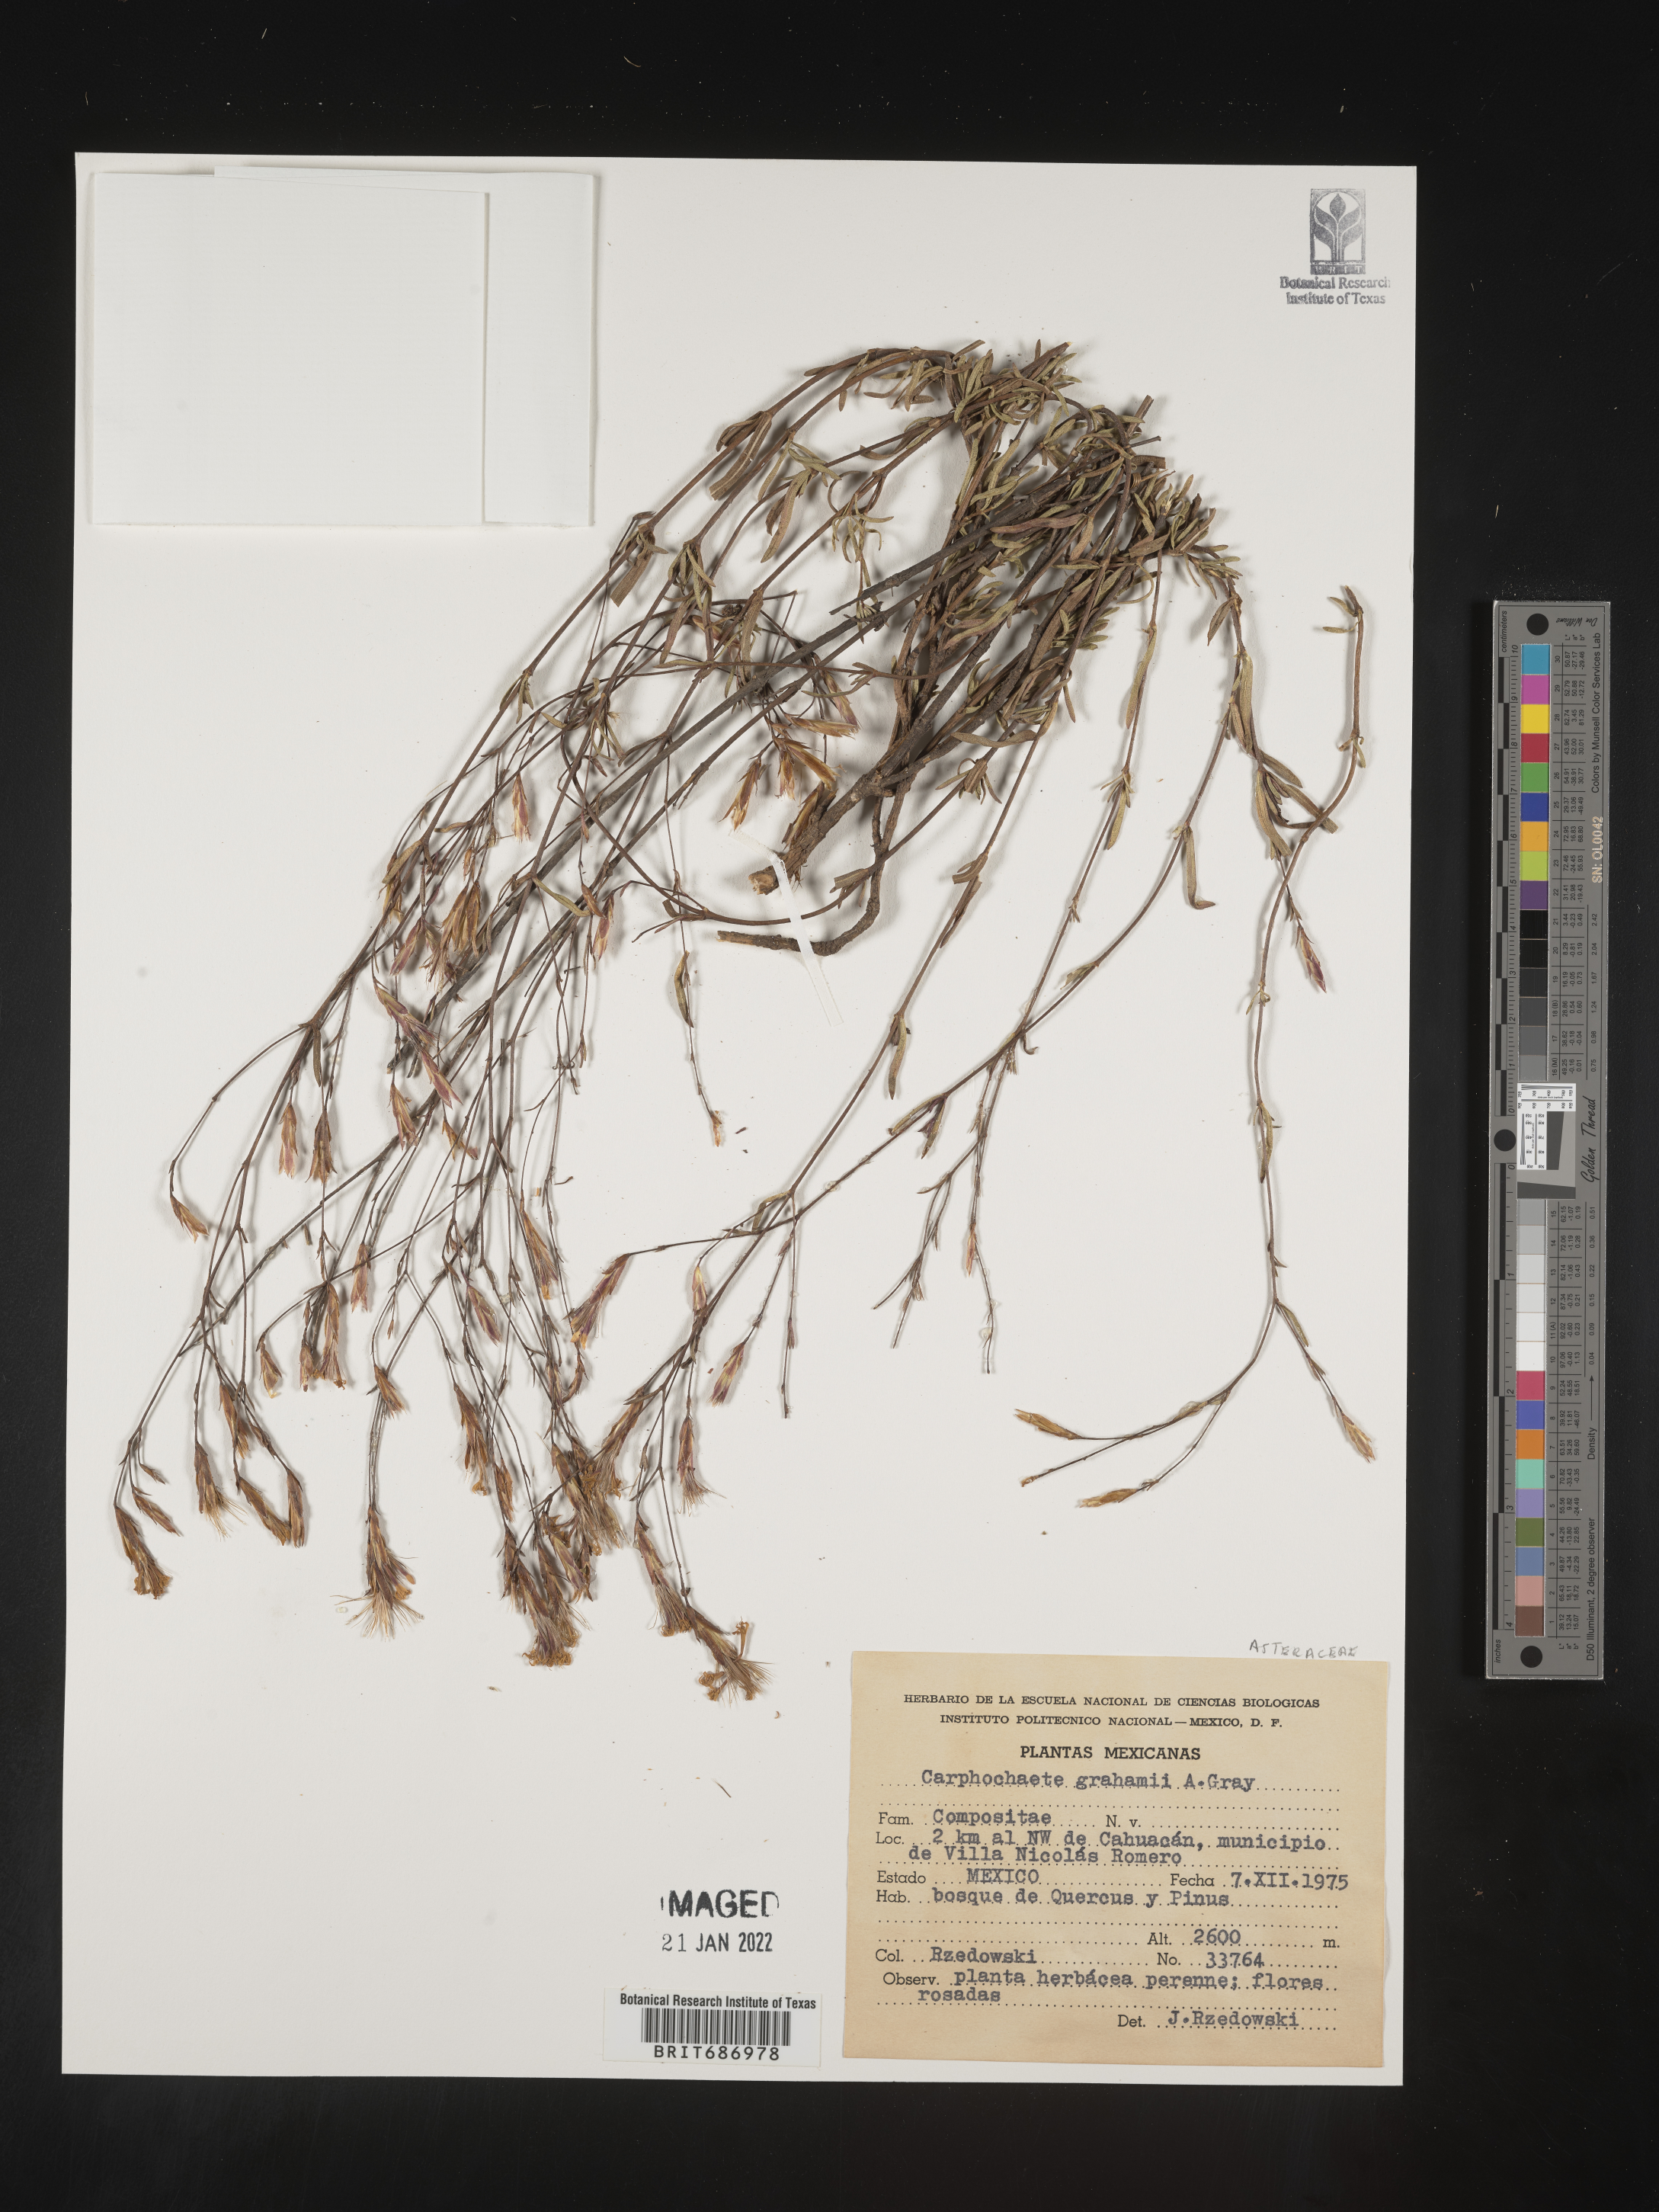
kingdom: Plantae
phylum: Tracheophyta
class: Magnoliopsida
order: Asterales
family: Asteraceae
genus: Carphochaete
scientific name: Carphochaete
